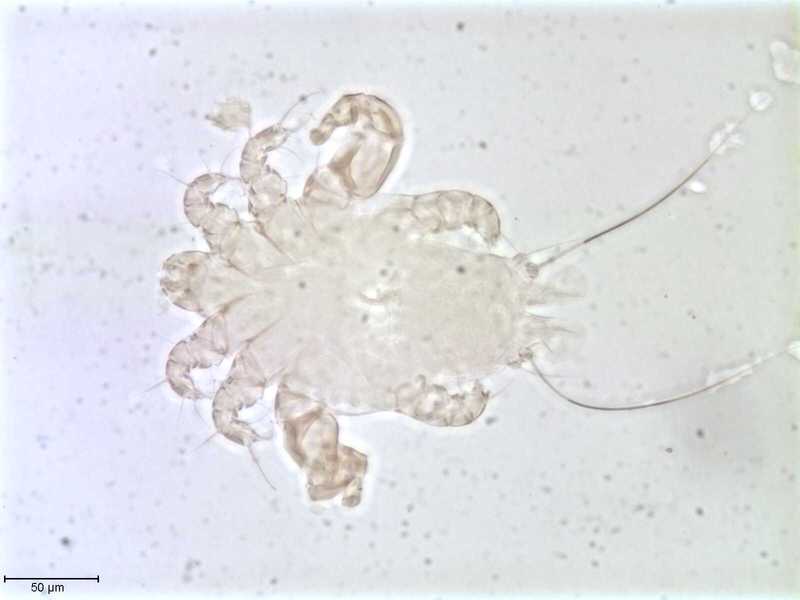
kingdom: Animalia
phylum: Arthropoda
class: Arachnida
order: Sarcoptiformes
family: Myocoptidae
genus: Gliricoptes
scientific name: Gliricoptes eliomys
